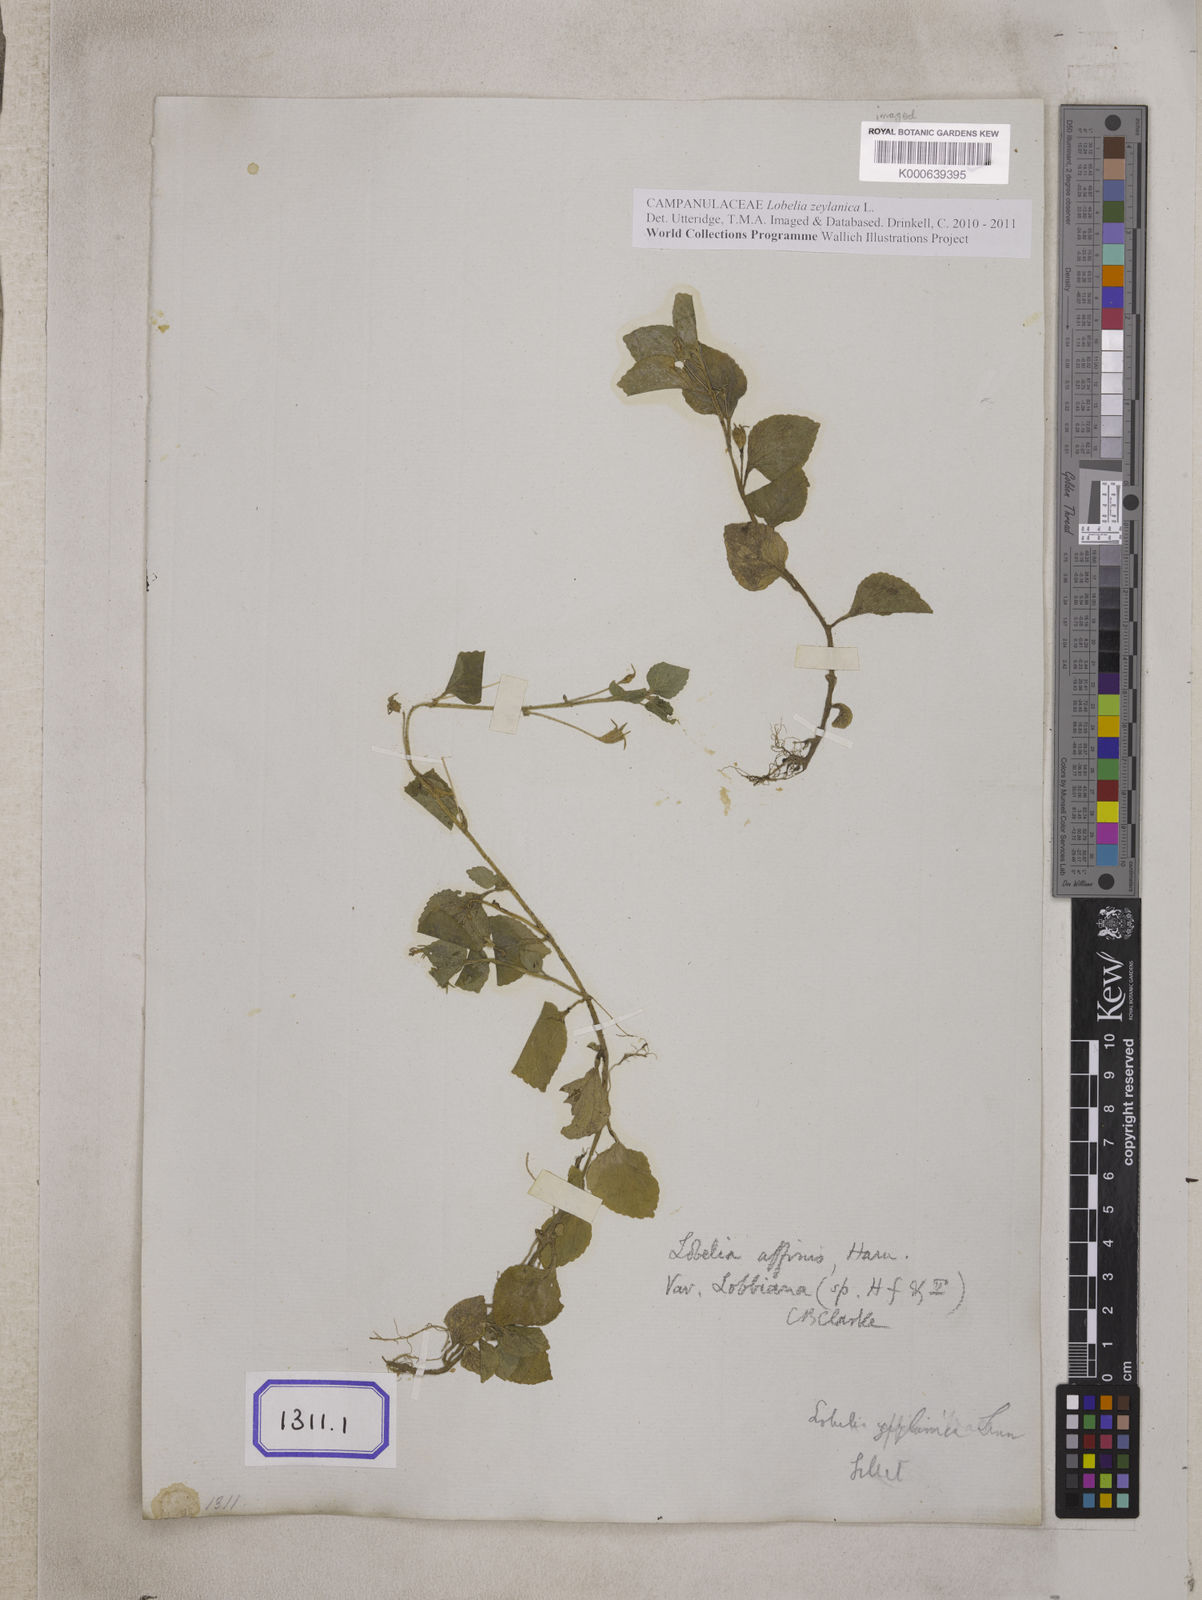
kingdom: Plantae
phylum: Tracheophyta
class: Magnoliopsida
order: Asterales
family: Campanulaceae
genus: Lobelia
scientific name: Lobelia
